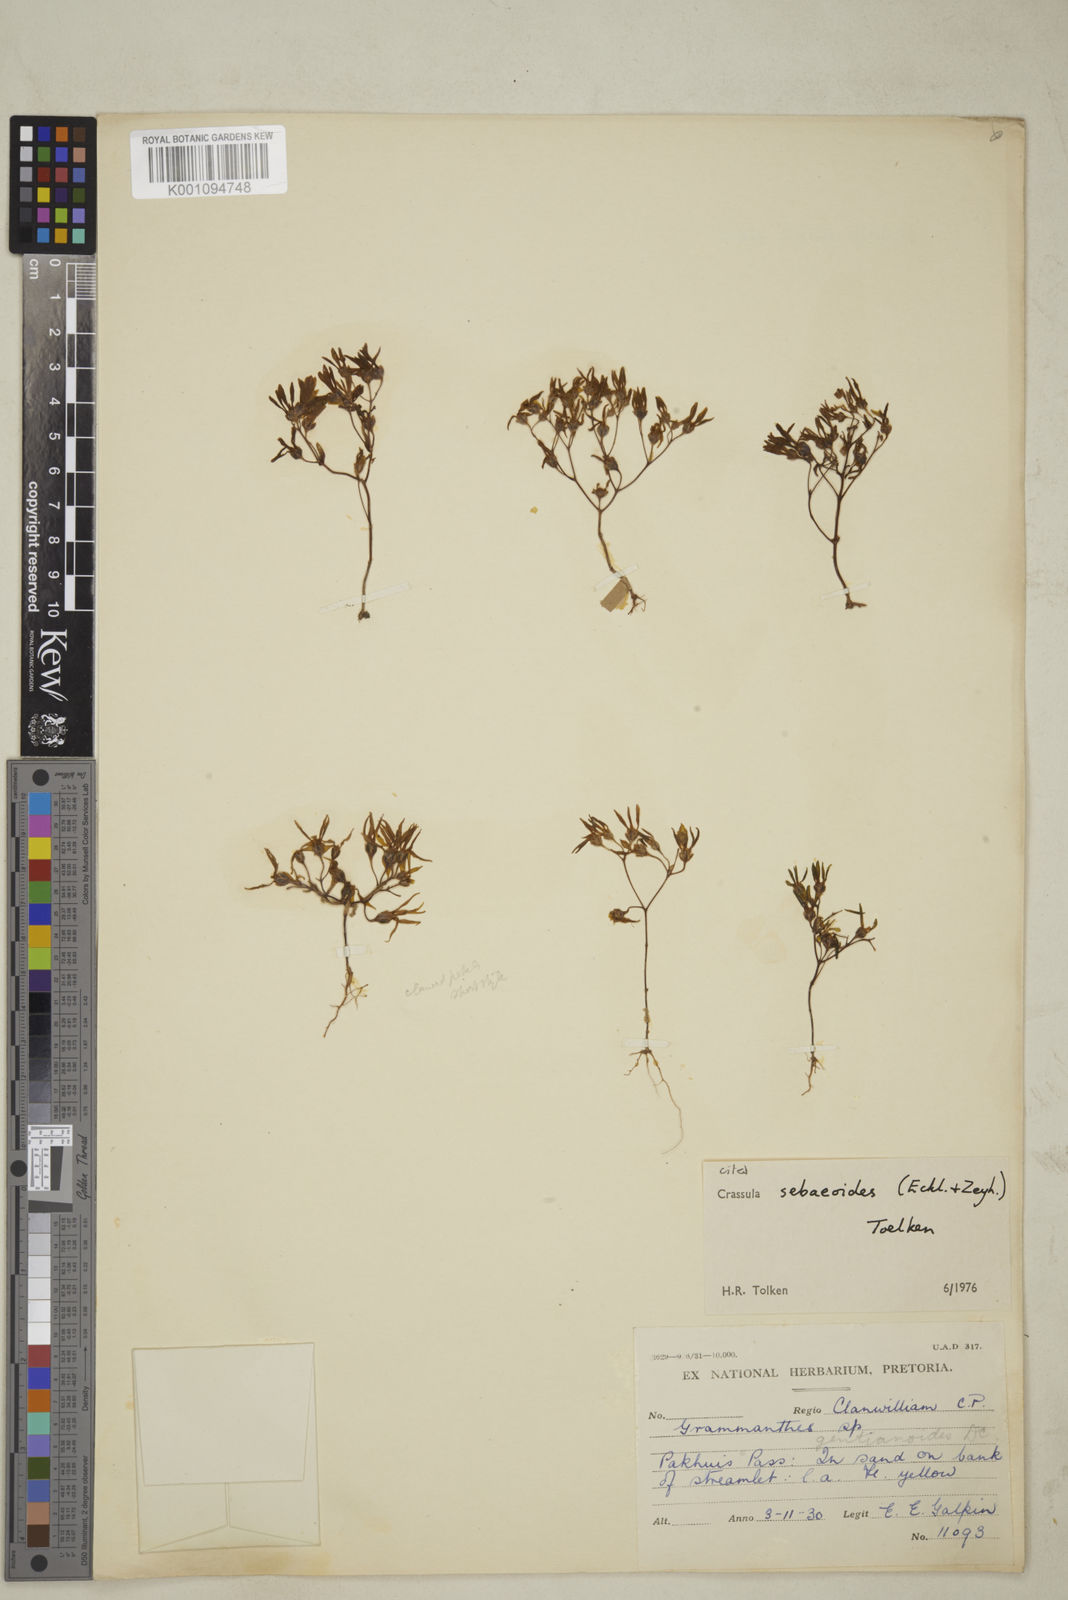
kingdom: Plantae
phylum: Tracheophyta
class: Magnoliopsida
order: Saxifragales
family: Crassulaceae
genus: Crassula
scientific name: Crassula sebaeoides
